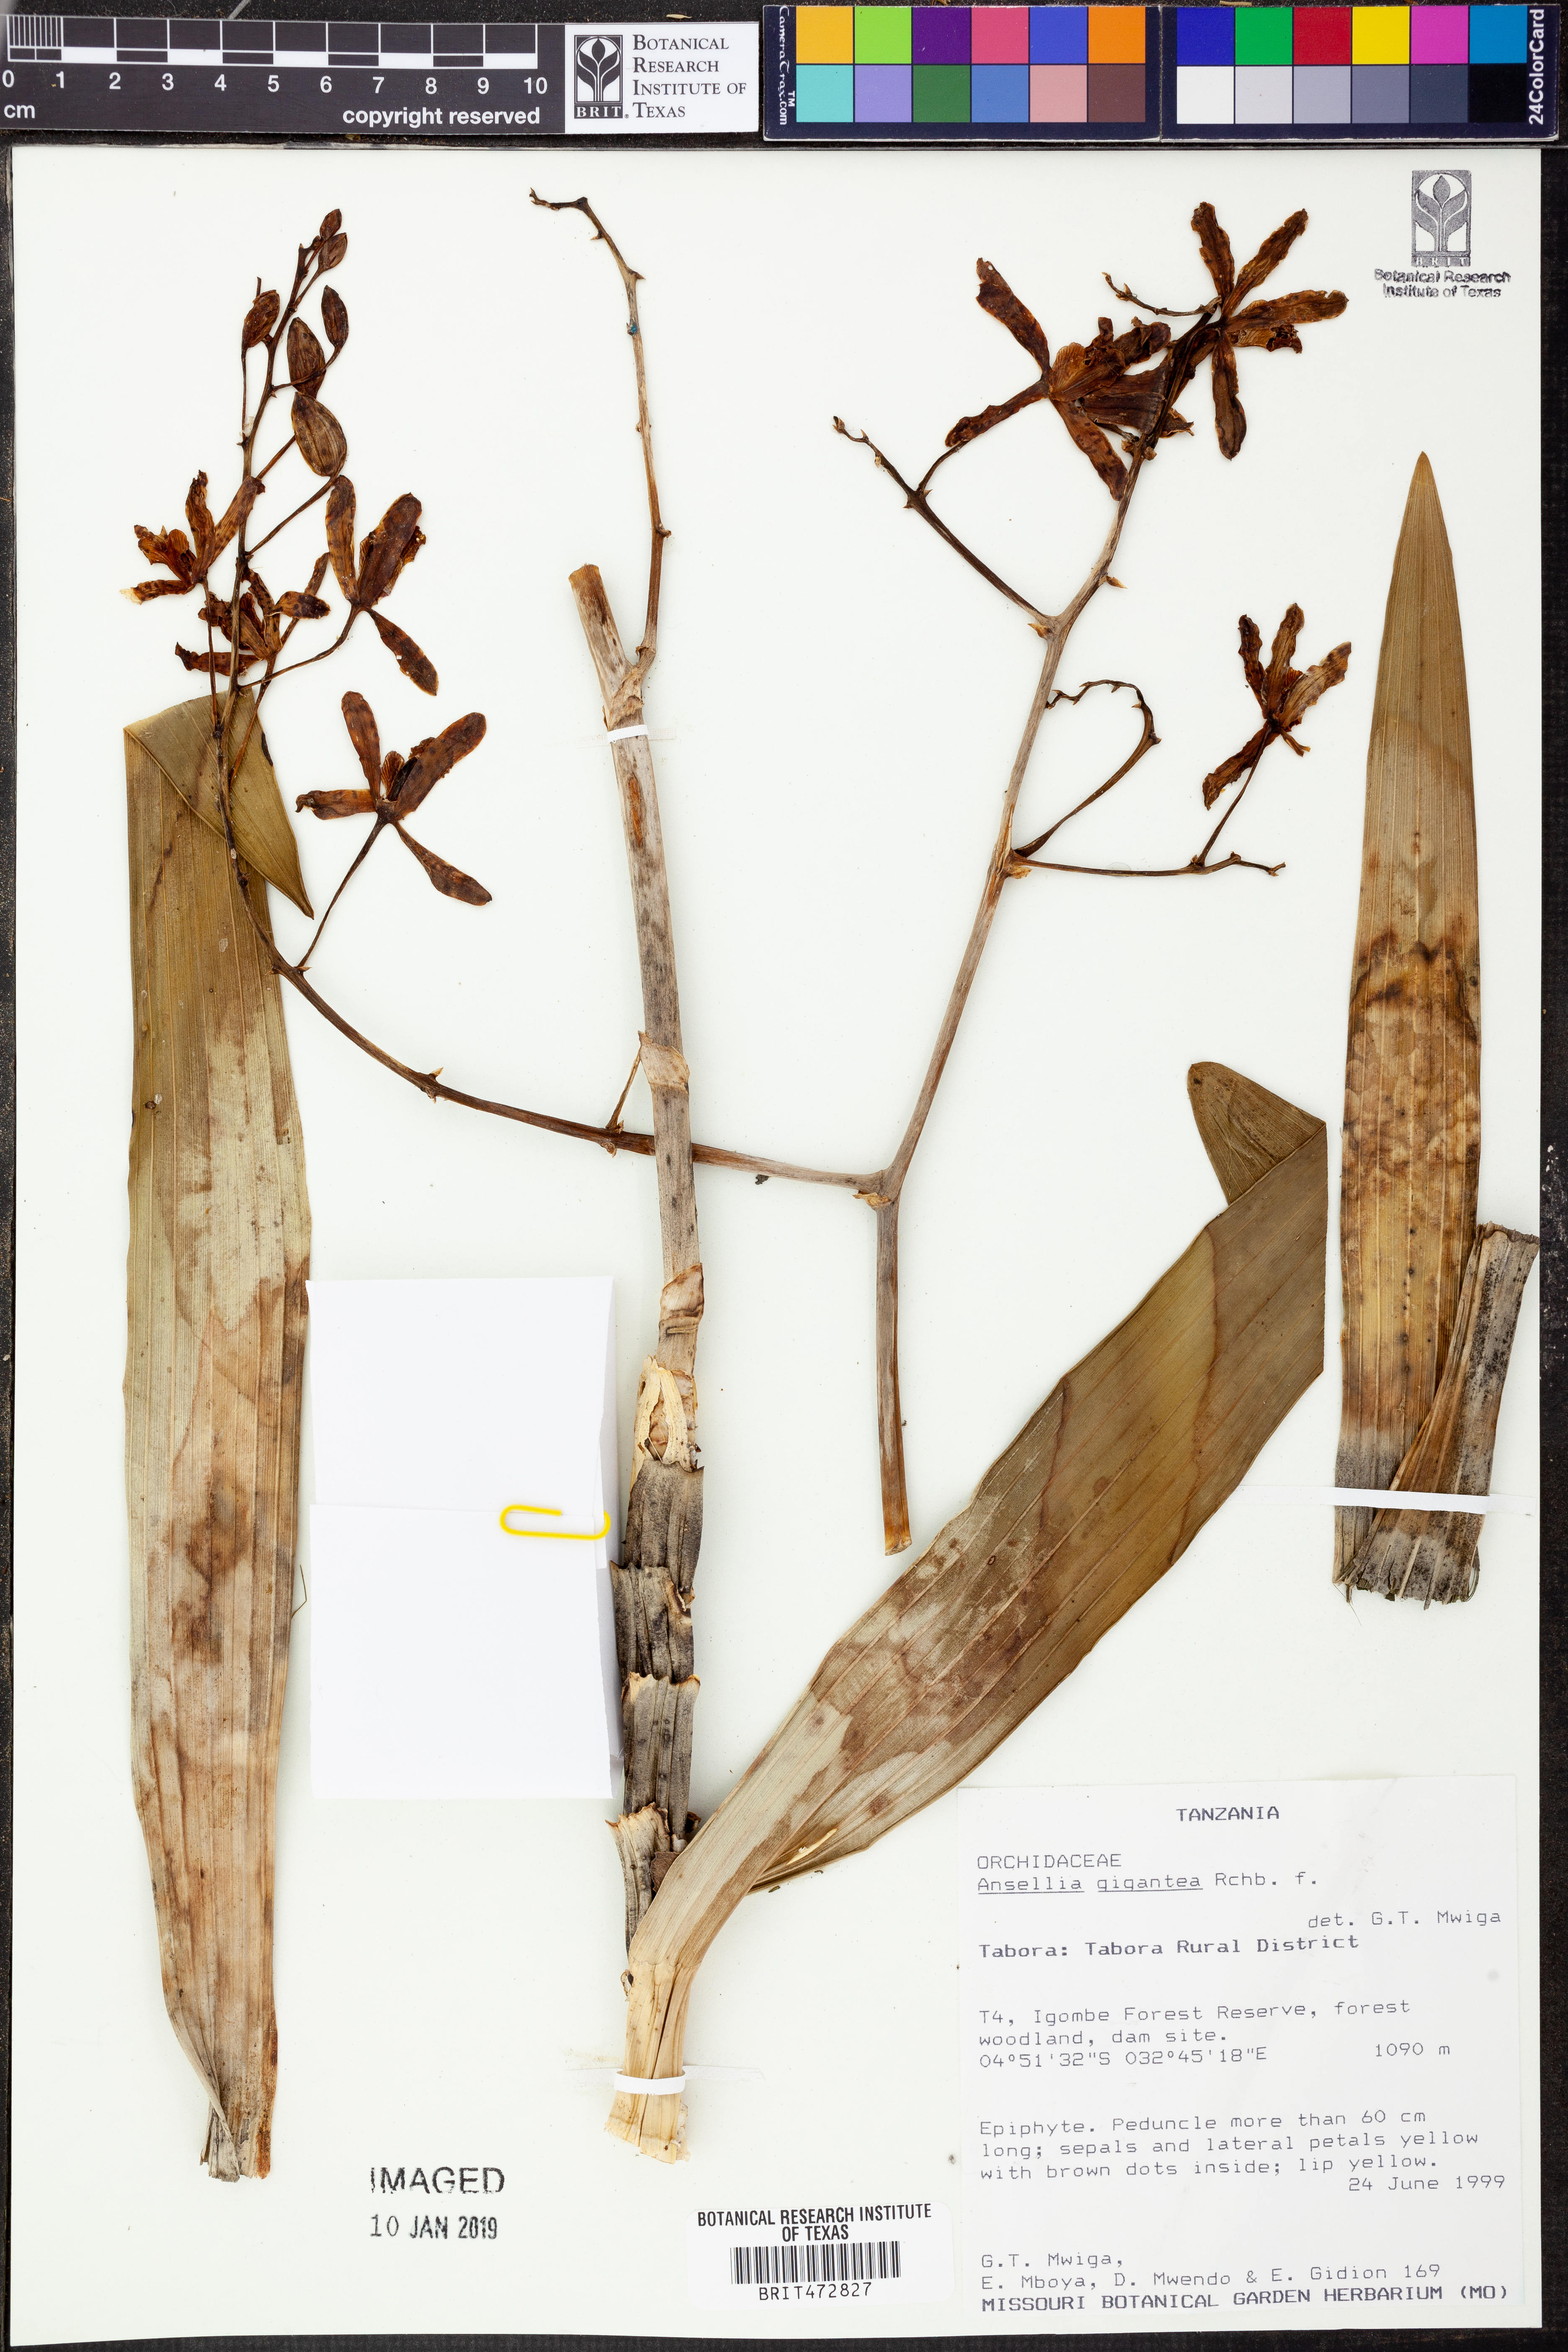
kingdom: Plantae
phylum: Tracheophyta
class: Liliopsida
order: Asparagales
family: Orchidaceae
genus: Ansellia
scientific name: Ansellia africana
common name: African ansellia
